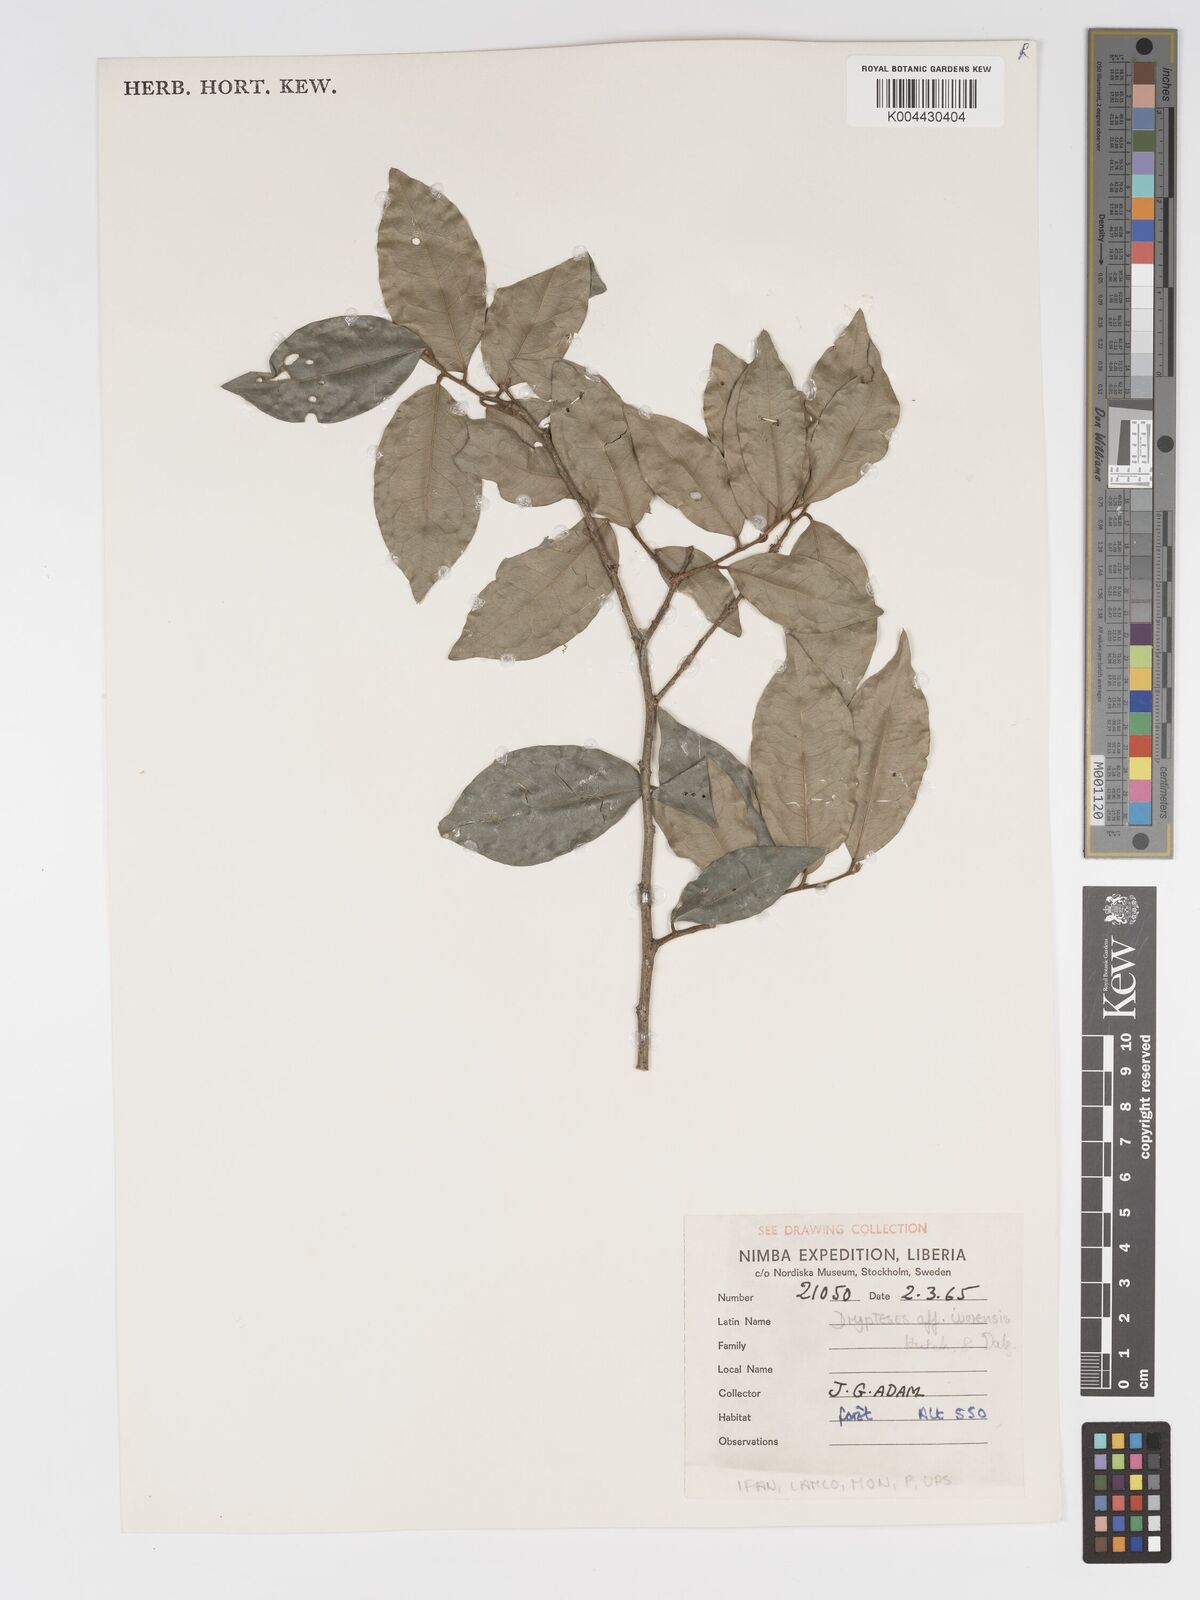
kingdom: Plantae
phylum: Tracheophyta
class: Magnoliopsida
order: Malpighiales
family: Putranjivaceae
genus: Drypetes
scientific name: Drypetes ivorensis
